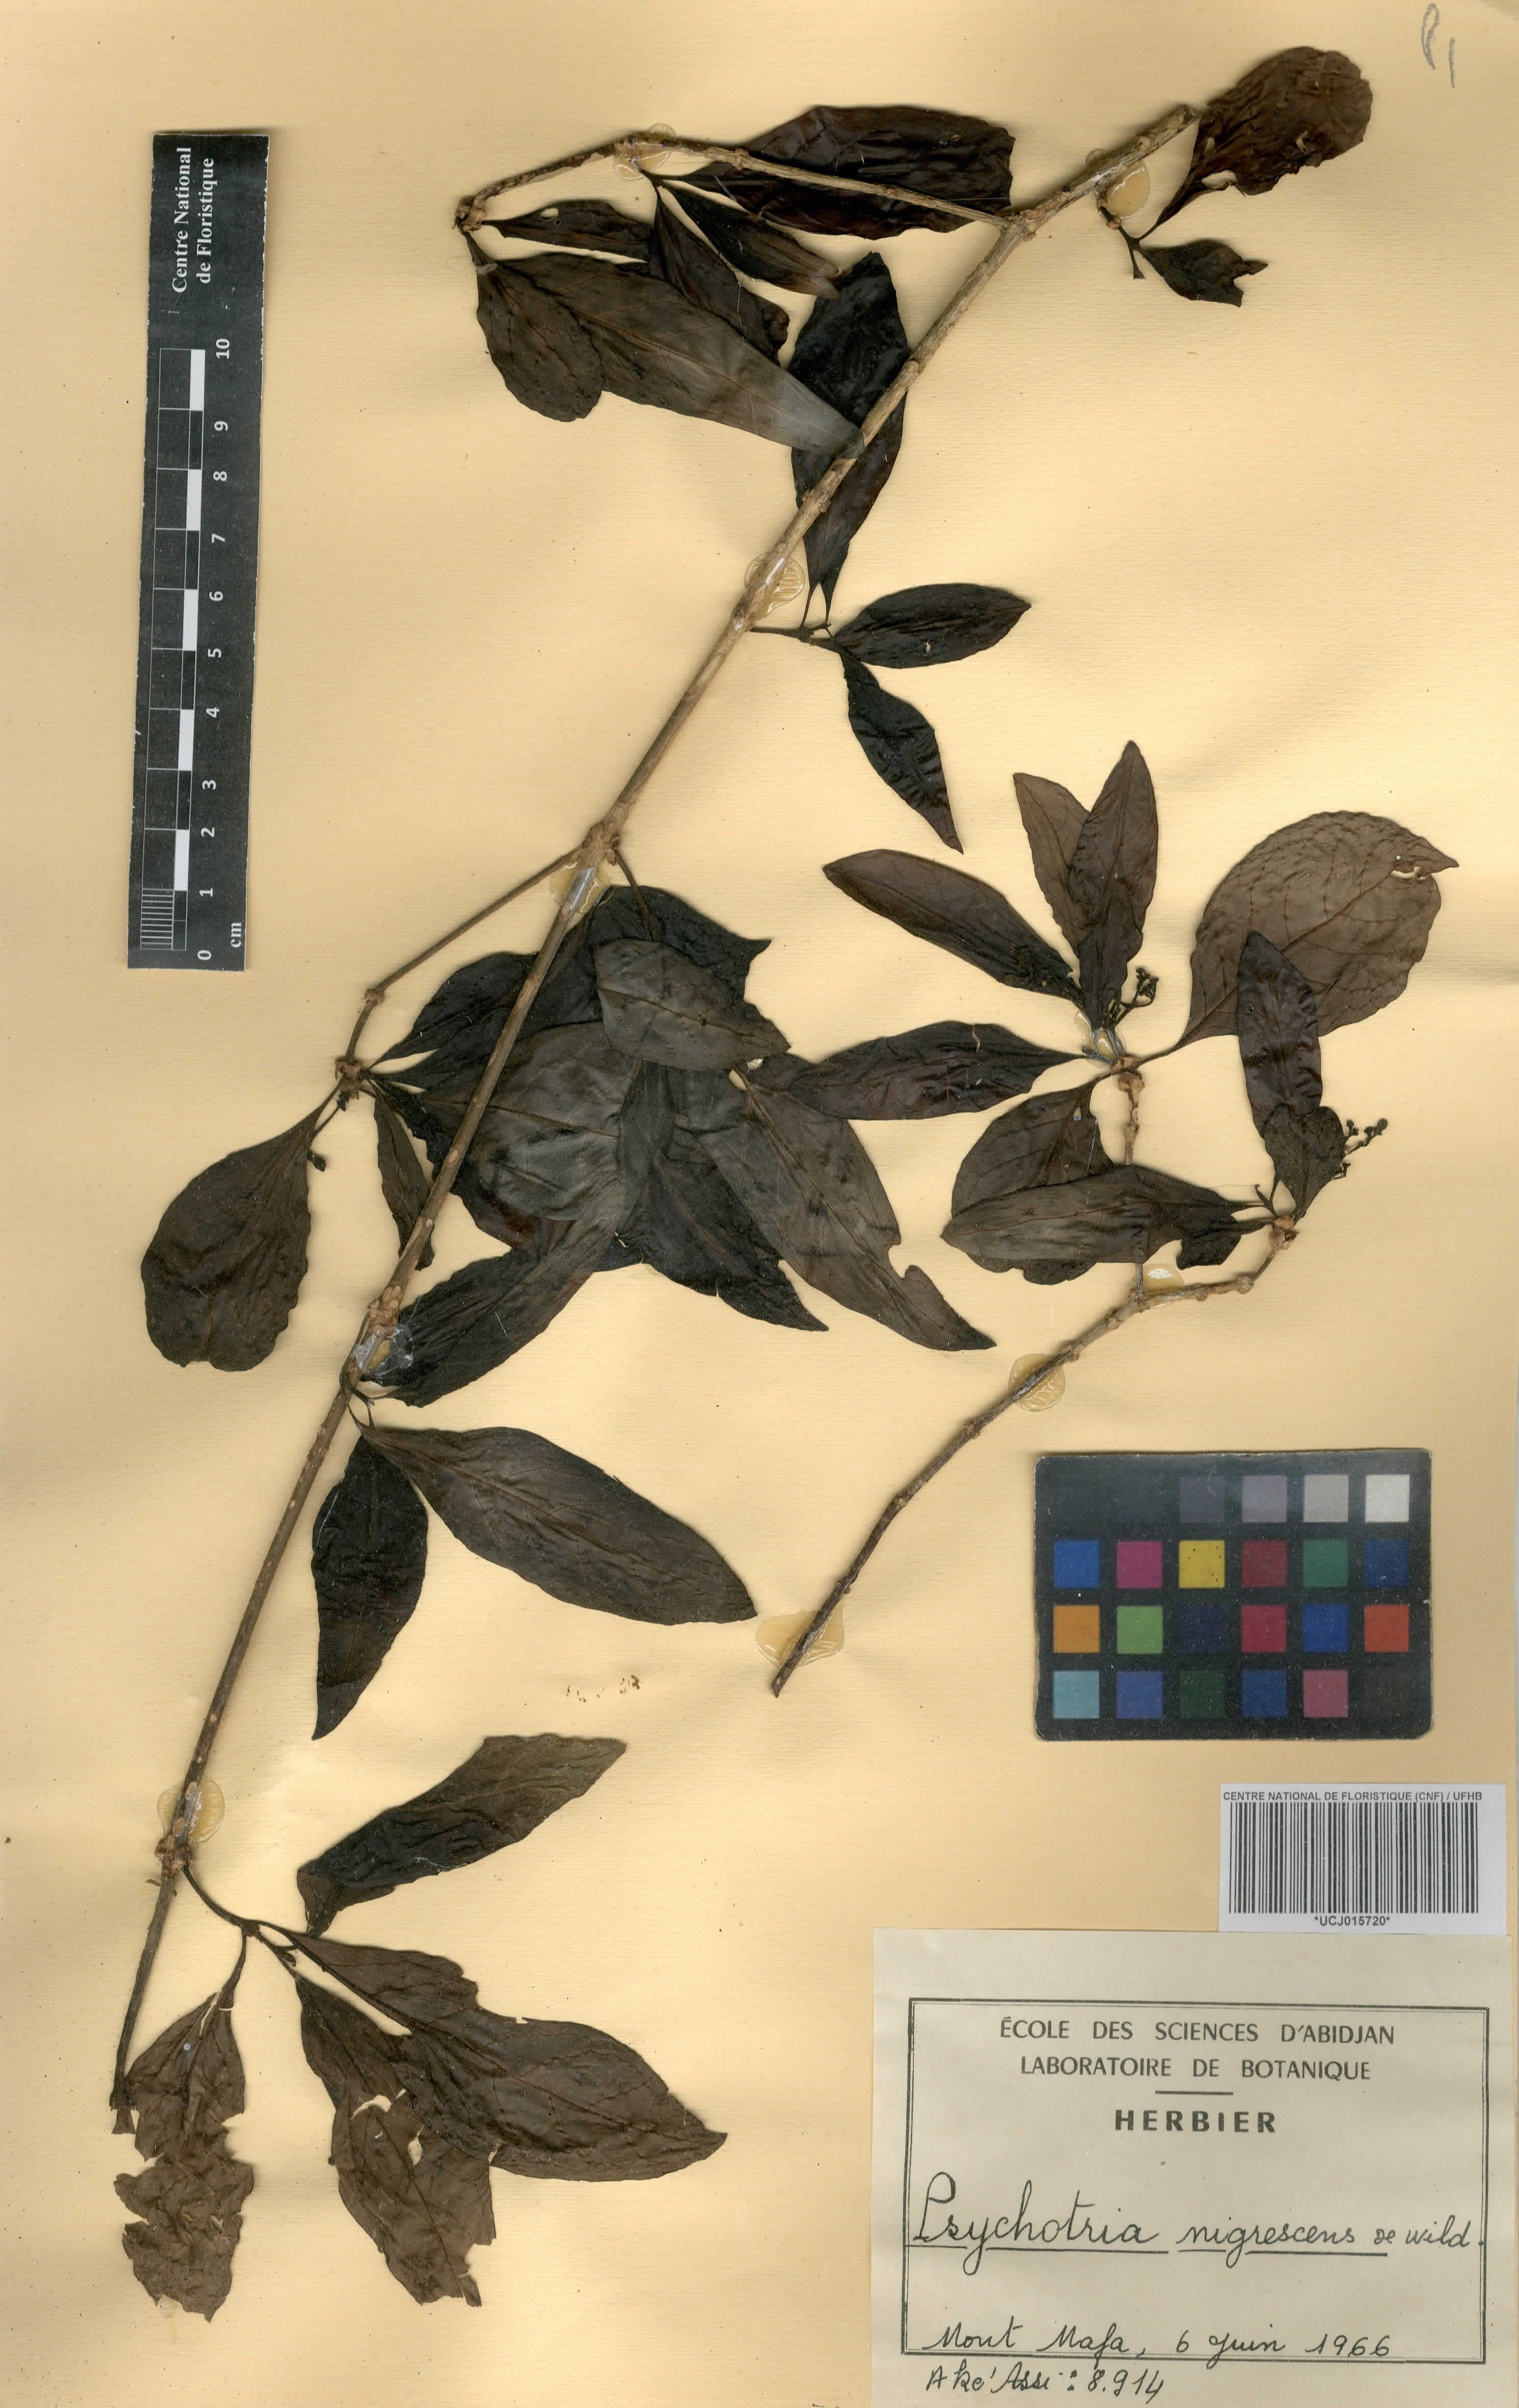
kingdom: Plantae
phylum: Tracheophyta
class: Magnoliopsida
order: Gentianales
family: Rubiaceae
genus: Psychotria
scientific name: Psychotria nigrescens
